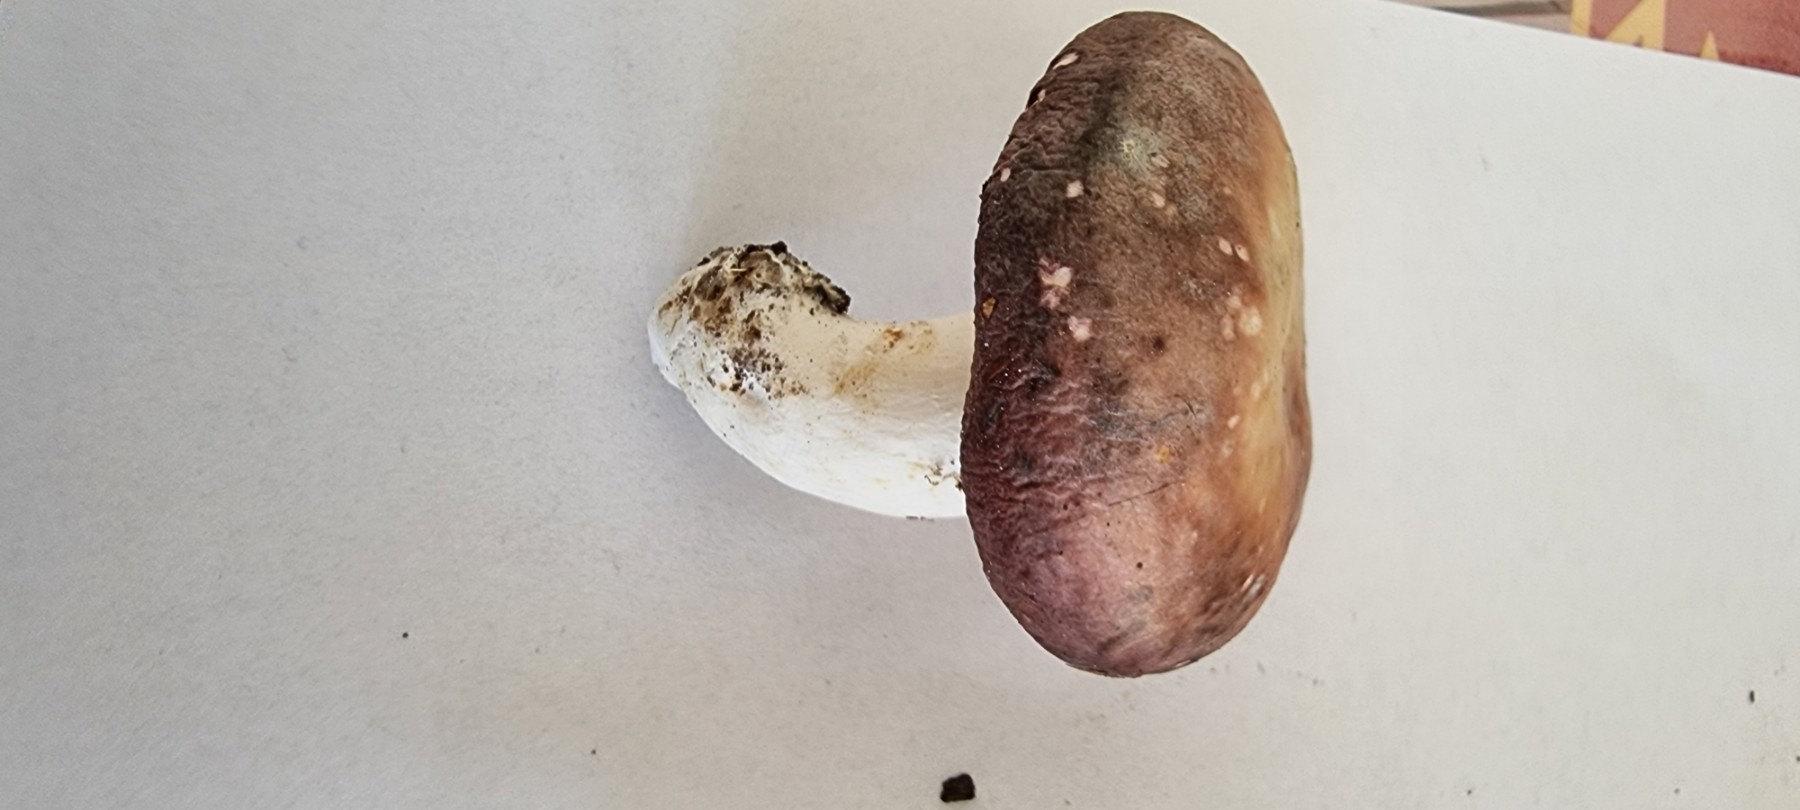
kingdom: Fungi
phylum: Basidiomycota
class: Agaricomycetes
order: Russulales
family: Russulaceae
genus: Russula
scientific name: Russula
